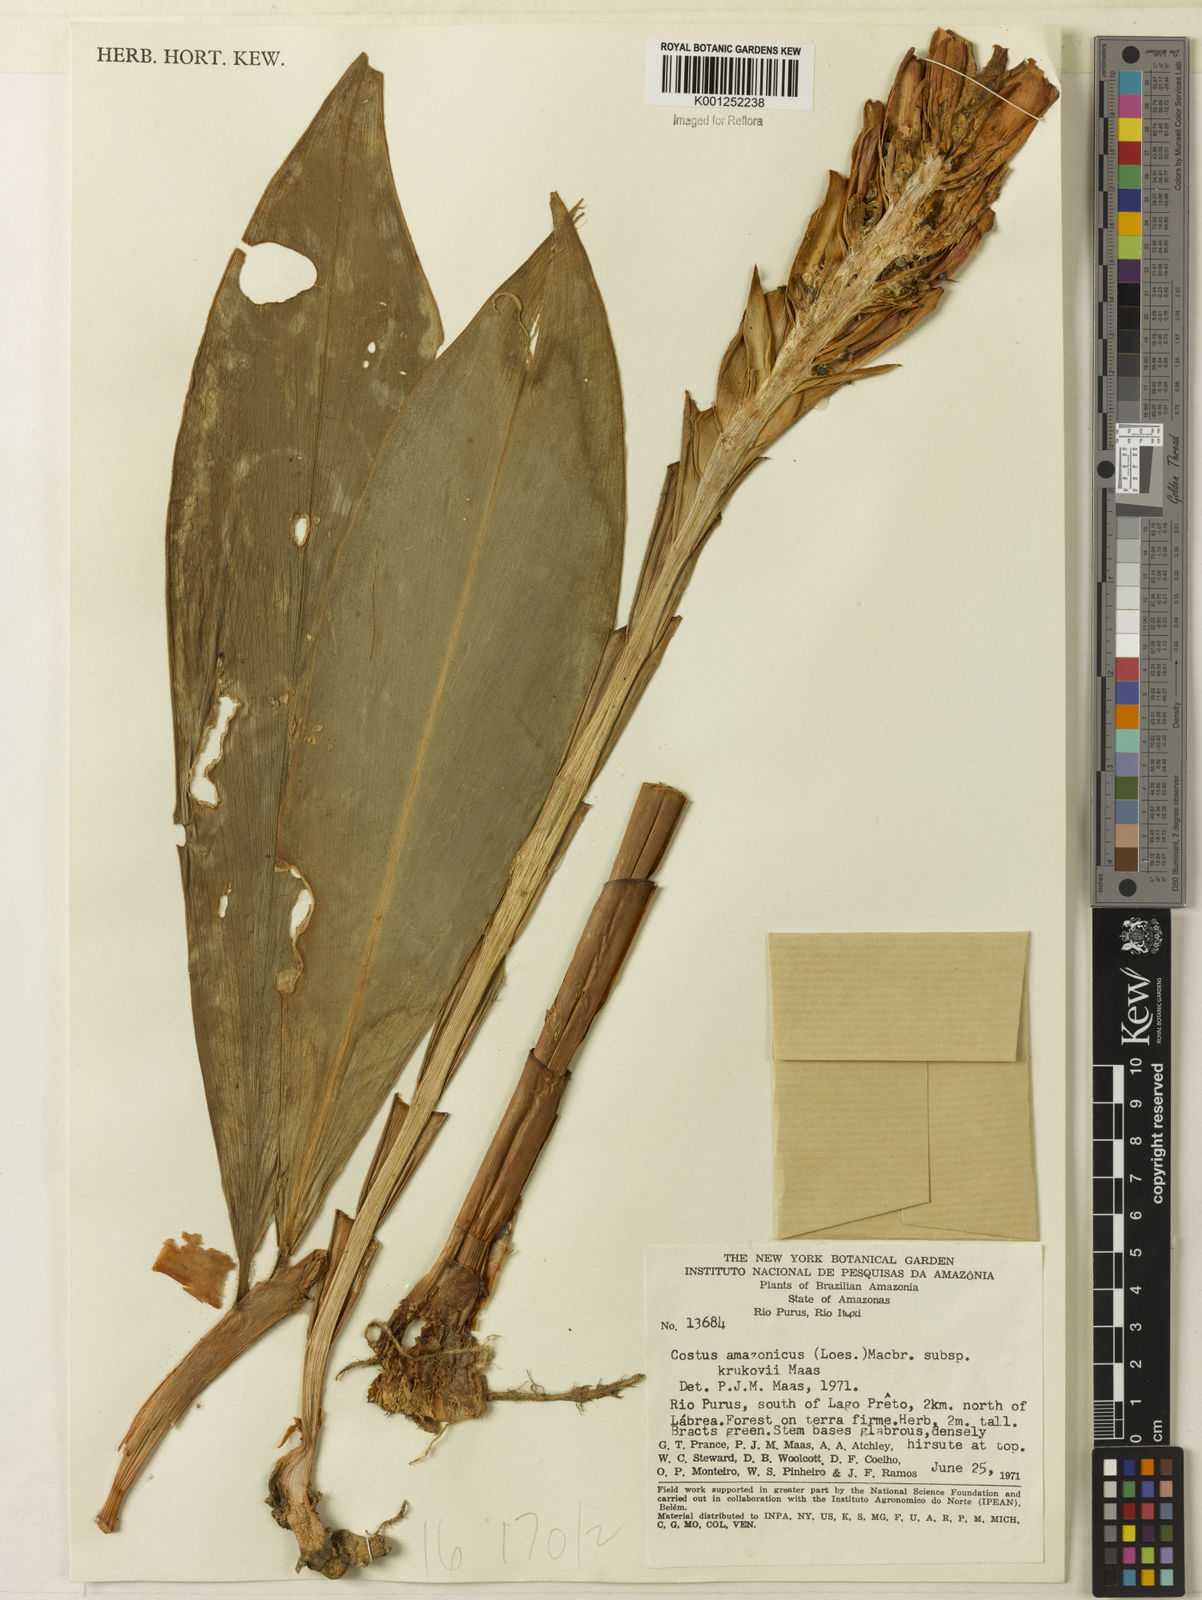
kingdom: Plantae
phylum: Tracheophyta
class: Liliopsida
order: Zingiberales
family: Costaceae
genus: Costus
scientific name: Costus amazonicus
